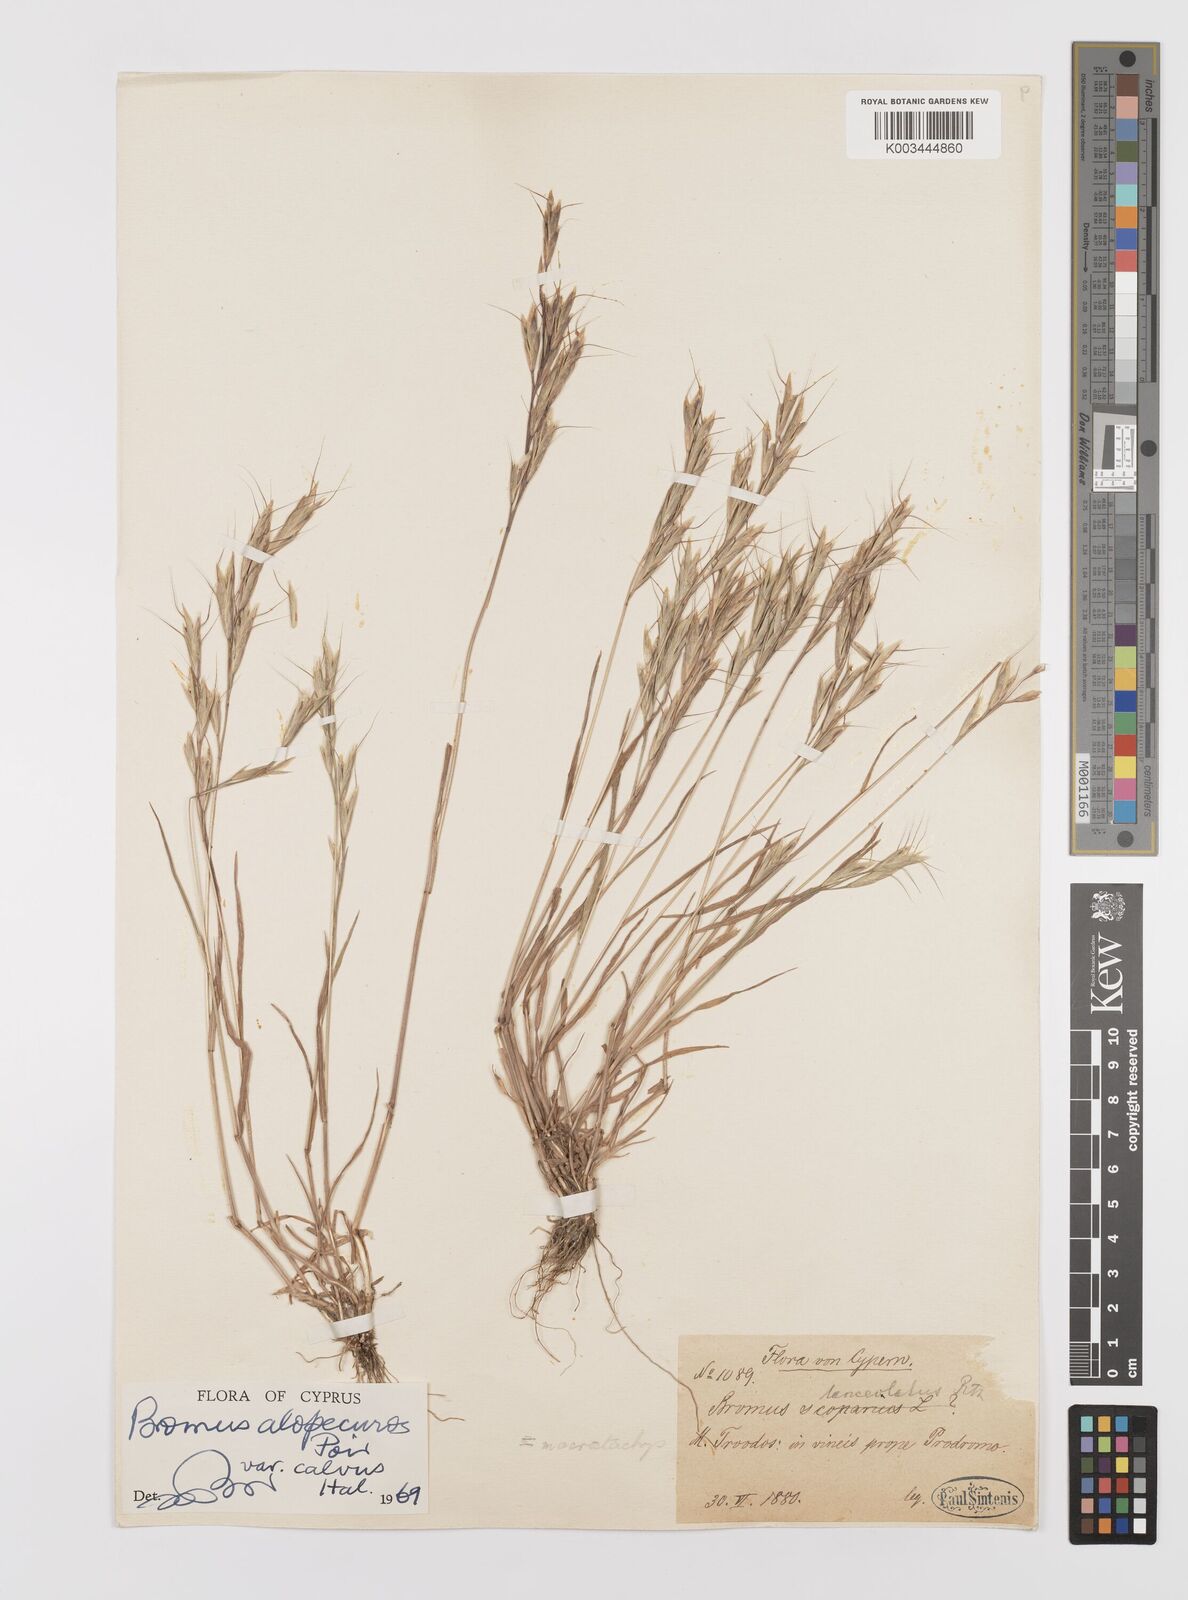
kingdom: Plantae
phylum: Tracheophyta
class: Liliopsida
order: Poales
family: Poaceae
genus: Bromus
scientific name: Bromus lanceolatus
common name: Mediterranean brome
